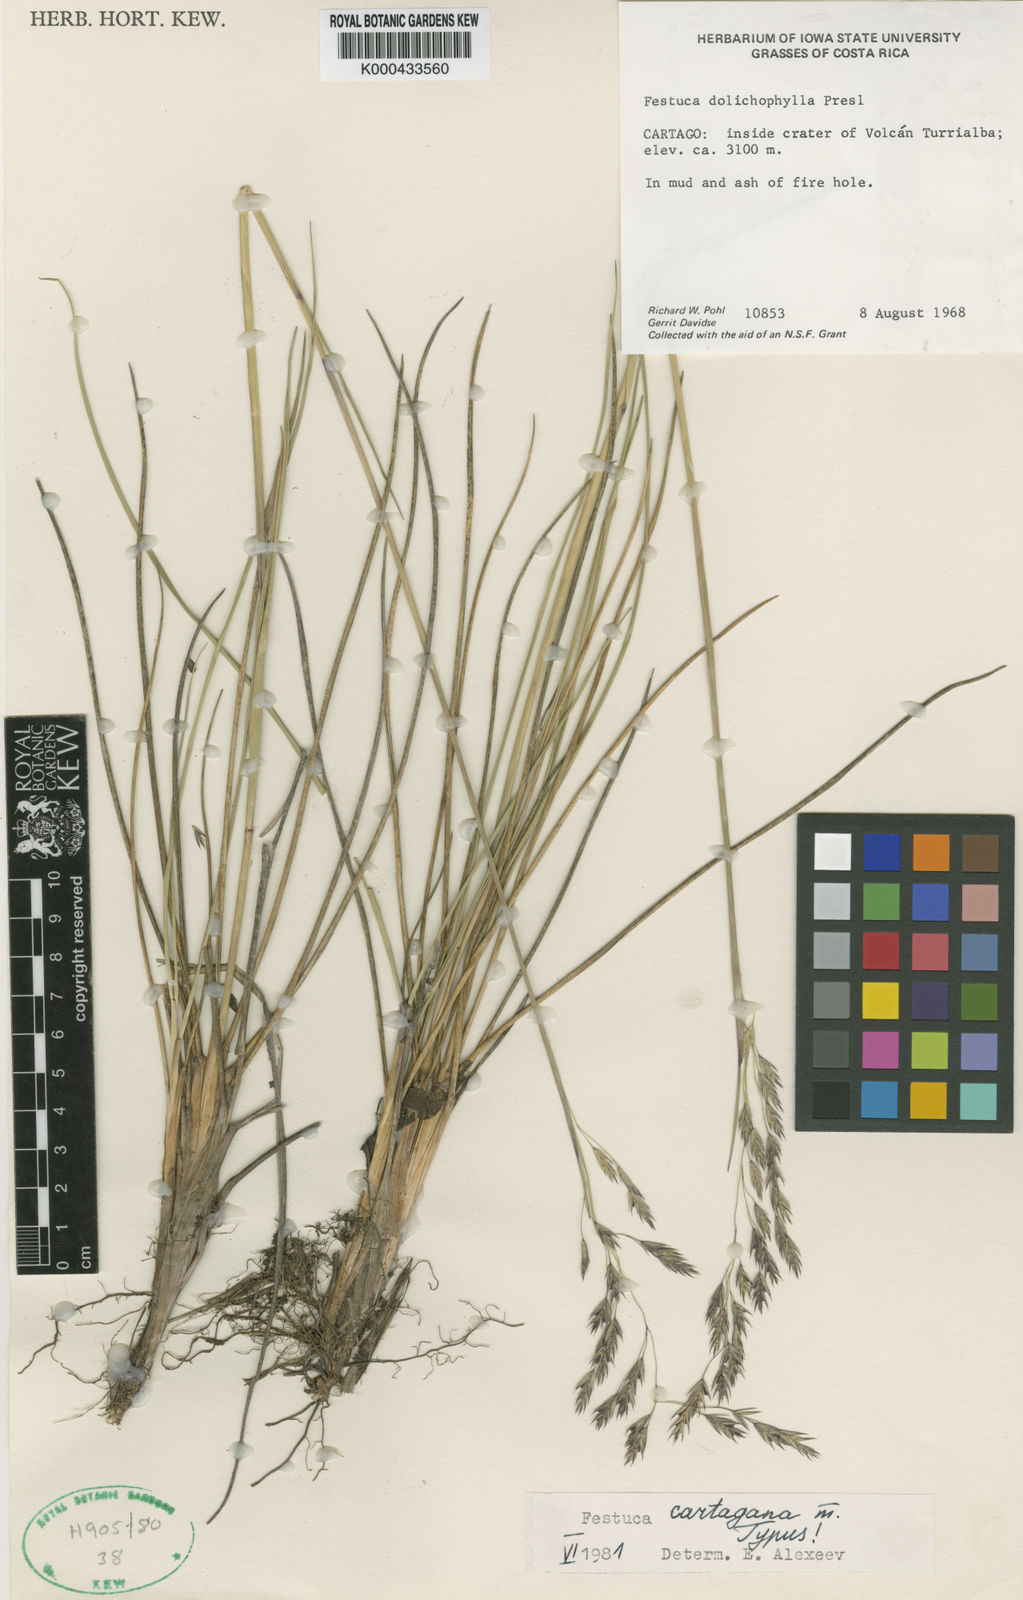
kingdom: Plantae
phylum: Tracheophyta
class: Liliopsida
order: Poales
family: Poaceae
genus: Festuca
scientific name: Festuca cartagana
